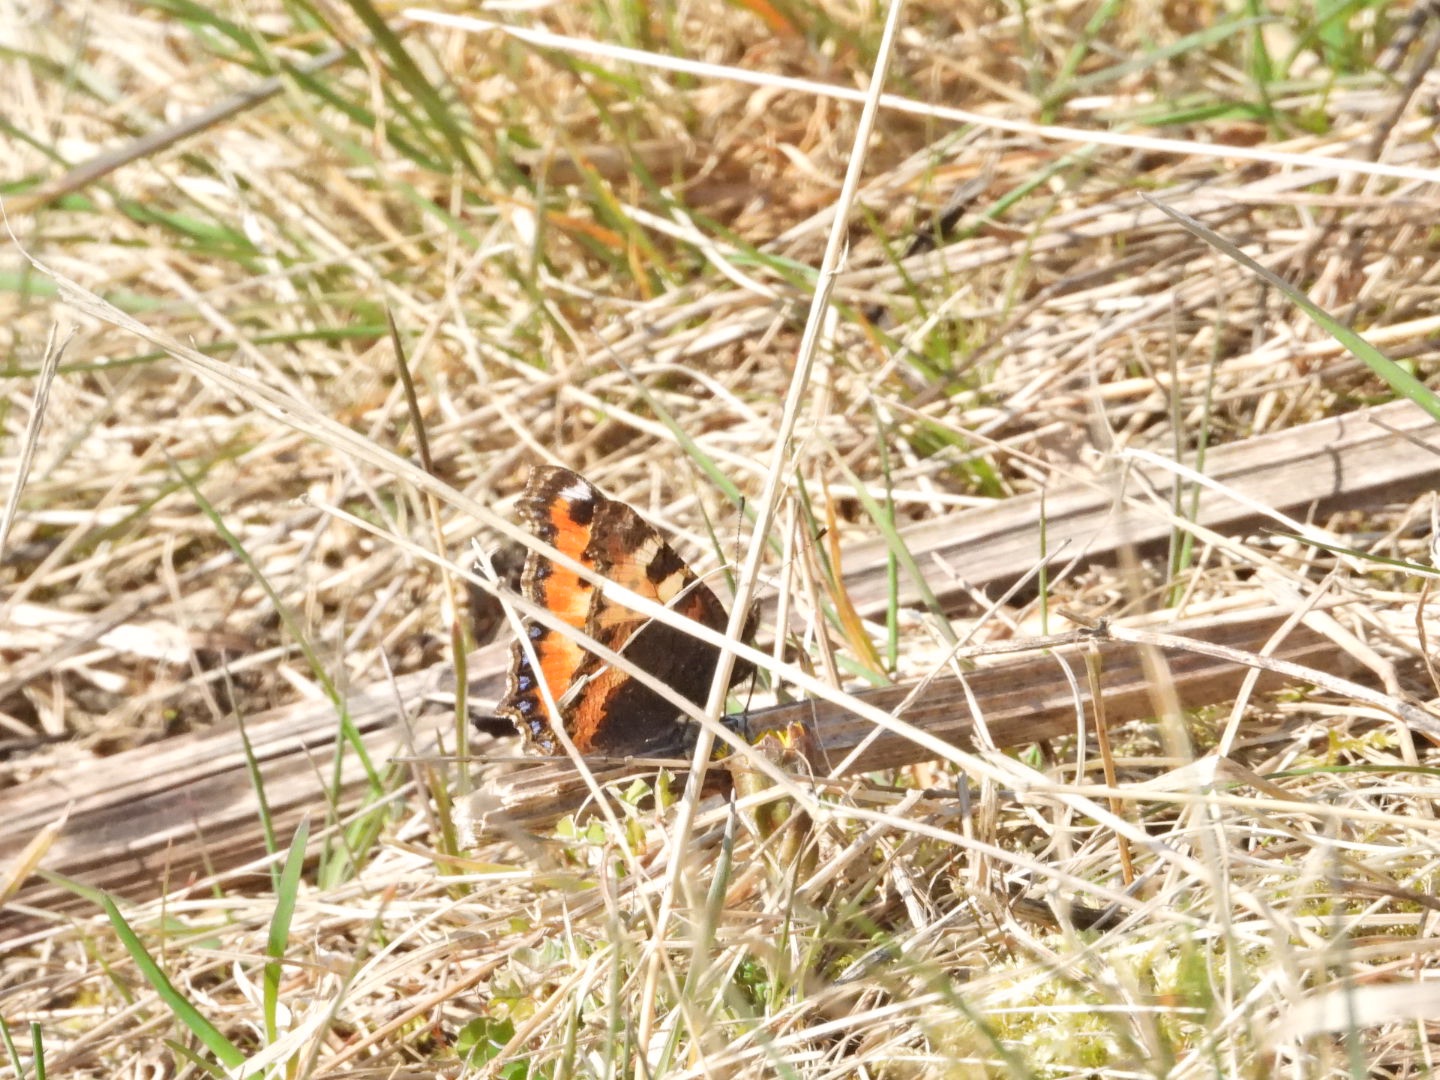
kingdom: Animalia
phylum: Arthropoda
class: Insecta
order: Lepidoptera
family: Nymphalidae
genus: Aglais
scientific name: Aglais urticae
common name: Nældens takvinge
